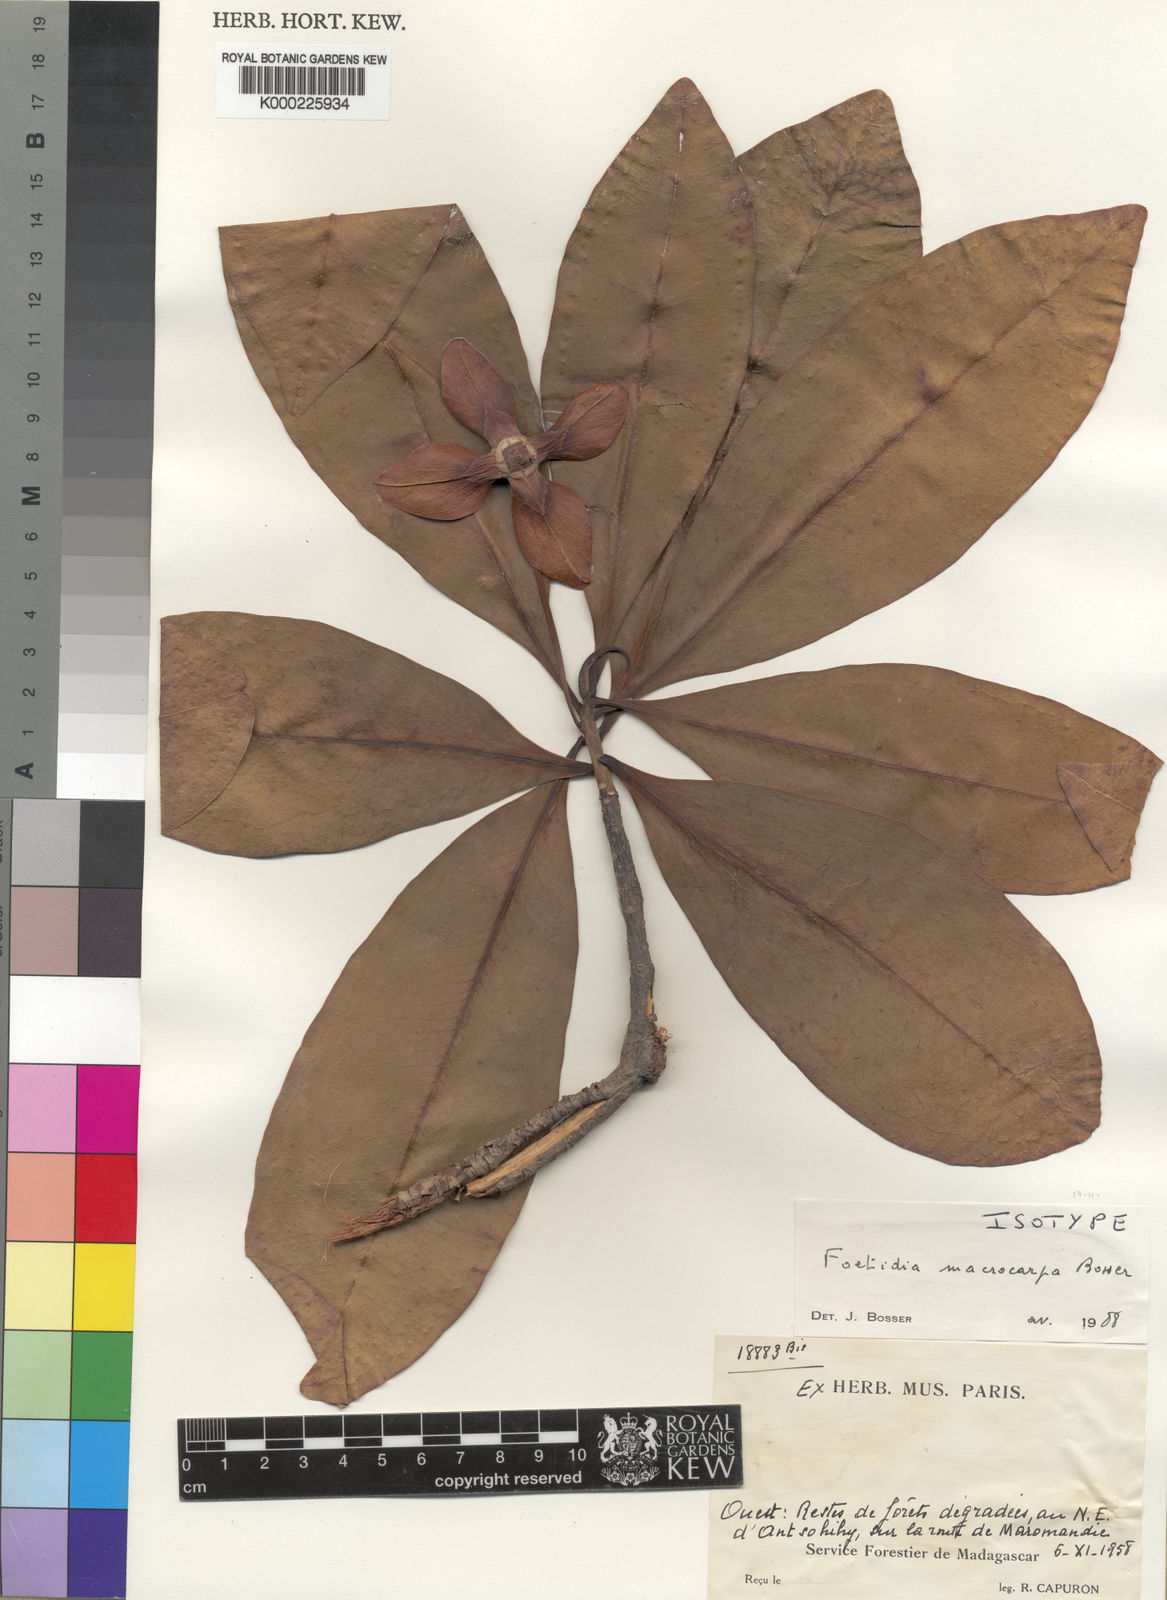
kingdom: Plantae
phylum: Tracheophyta
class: Magnoliopsida
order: Ericales
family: Lecythidaceae
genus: Foetidia
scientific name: Foetidia macrocarpa
